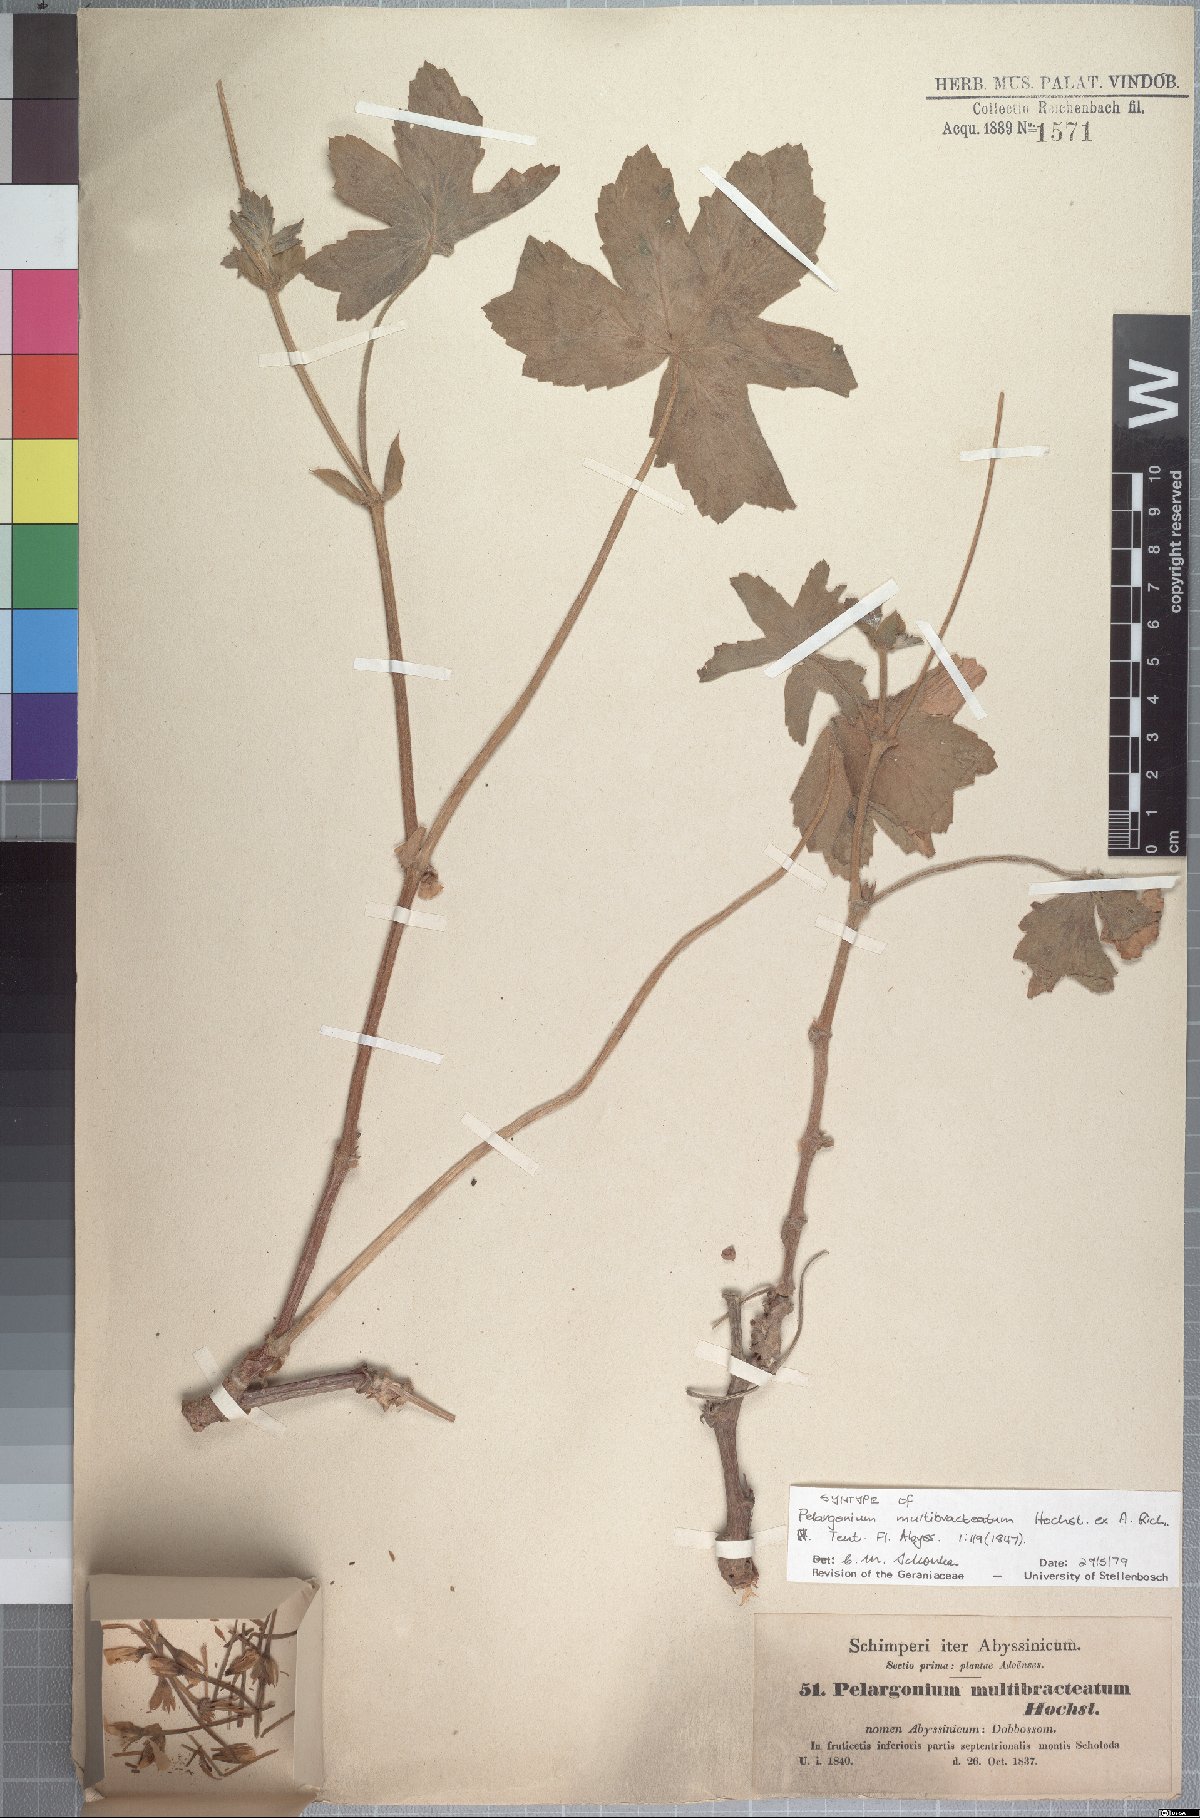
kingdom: Plantae
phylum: Tracheophyta
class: Magnoliopsida
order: Geraniales
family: Geraniaceae
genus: Pelargonium
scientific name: Pelargonium multibracteatum
